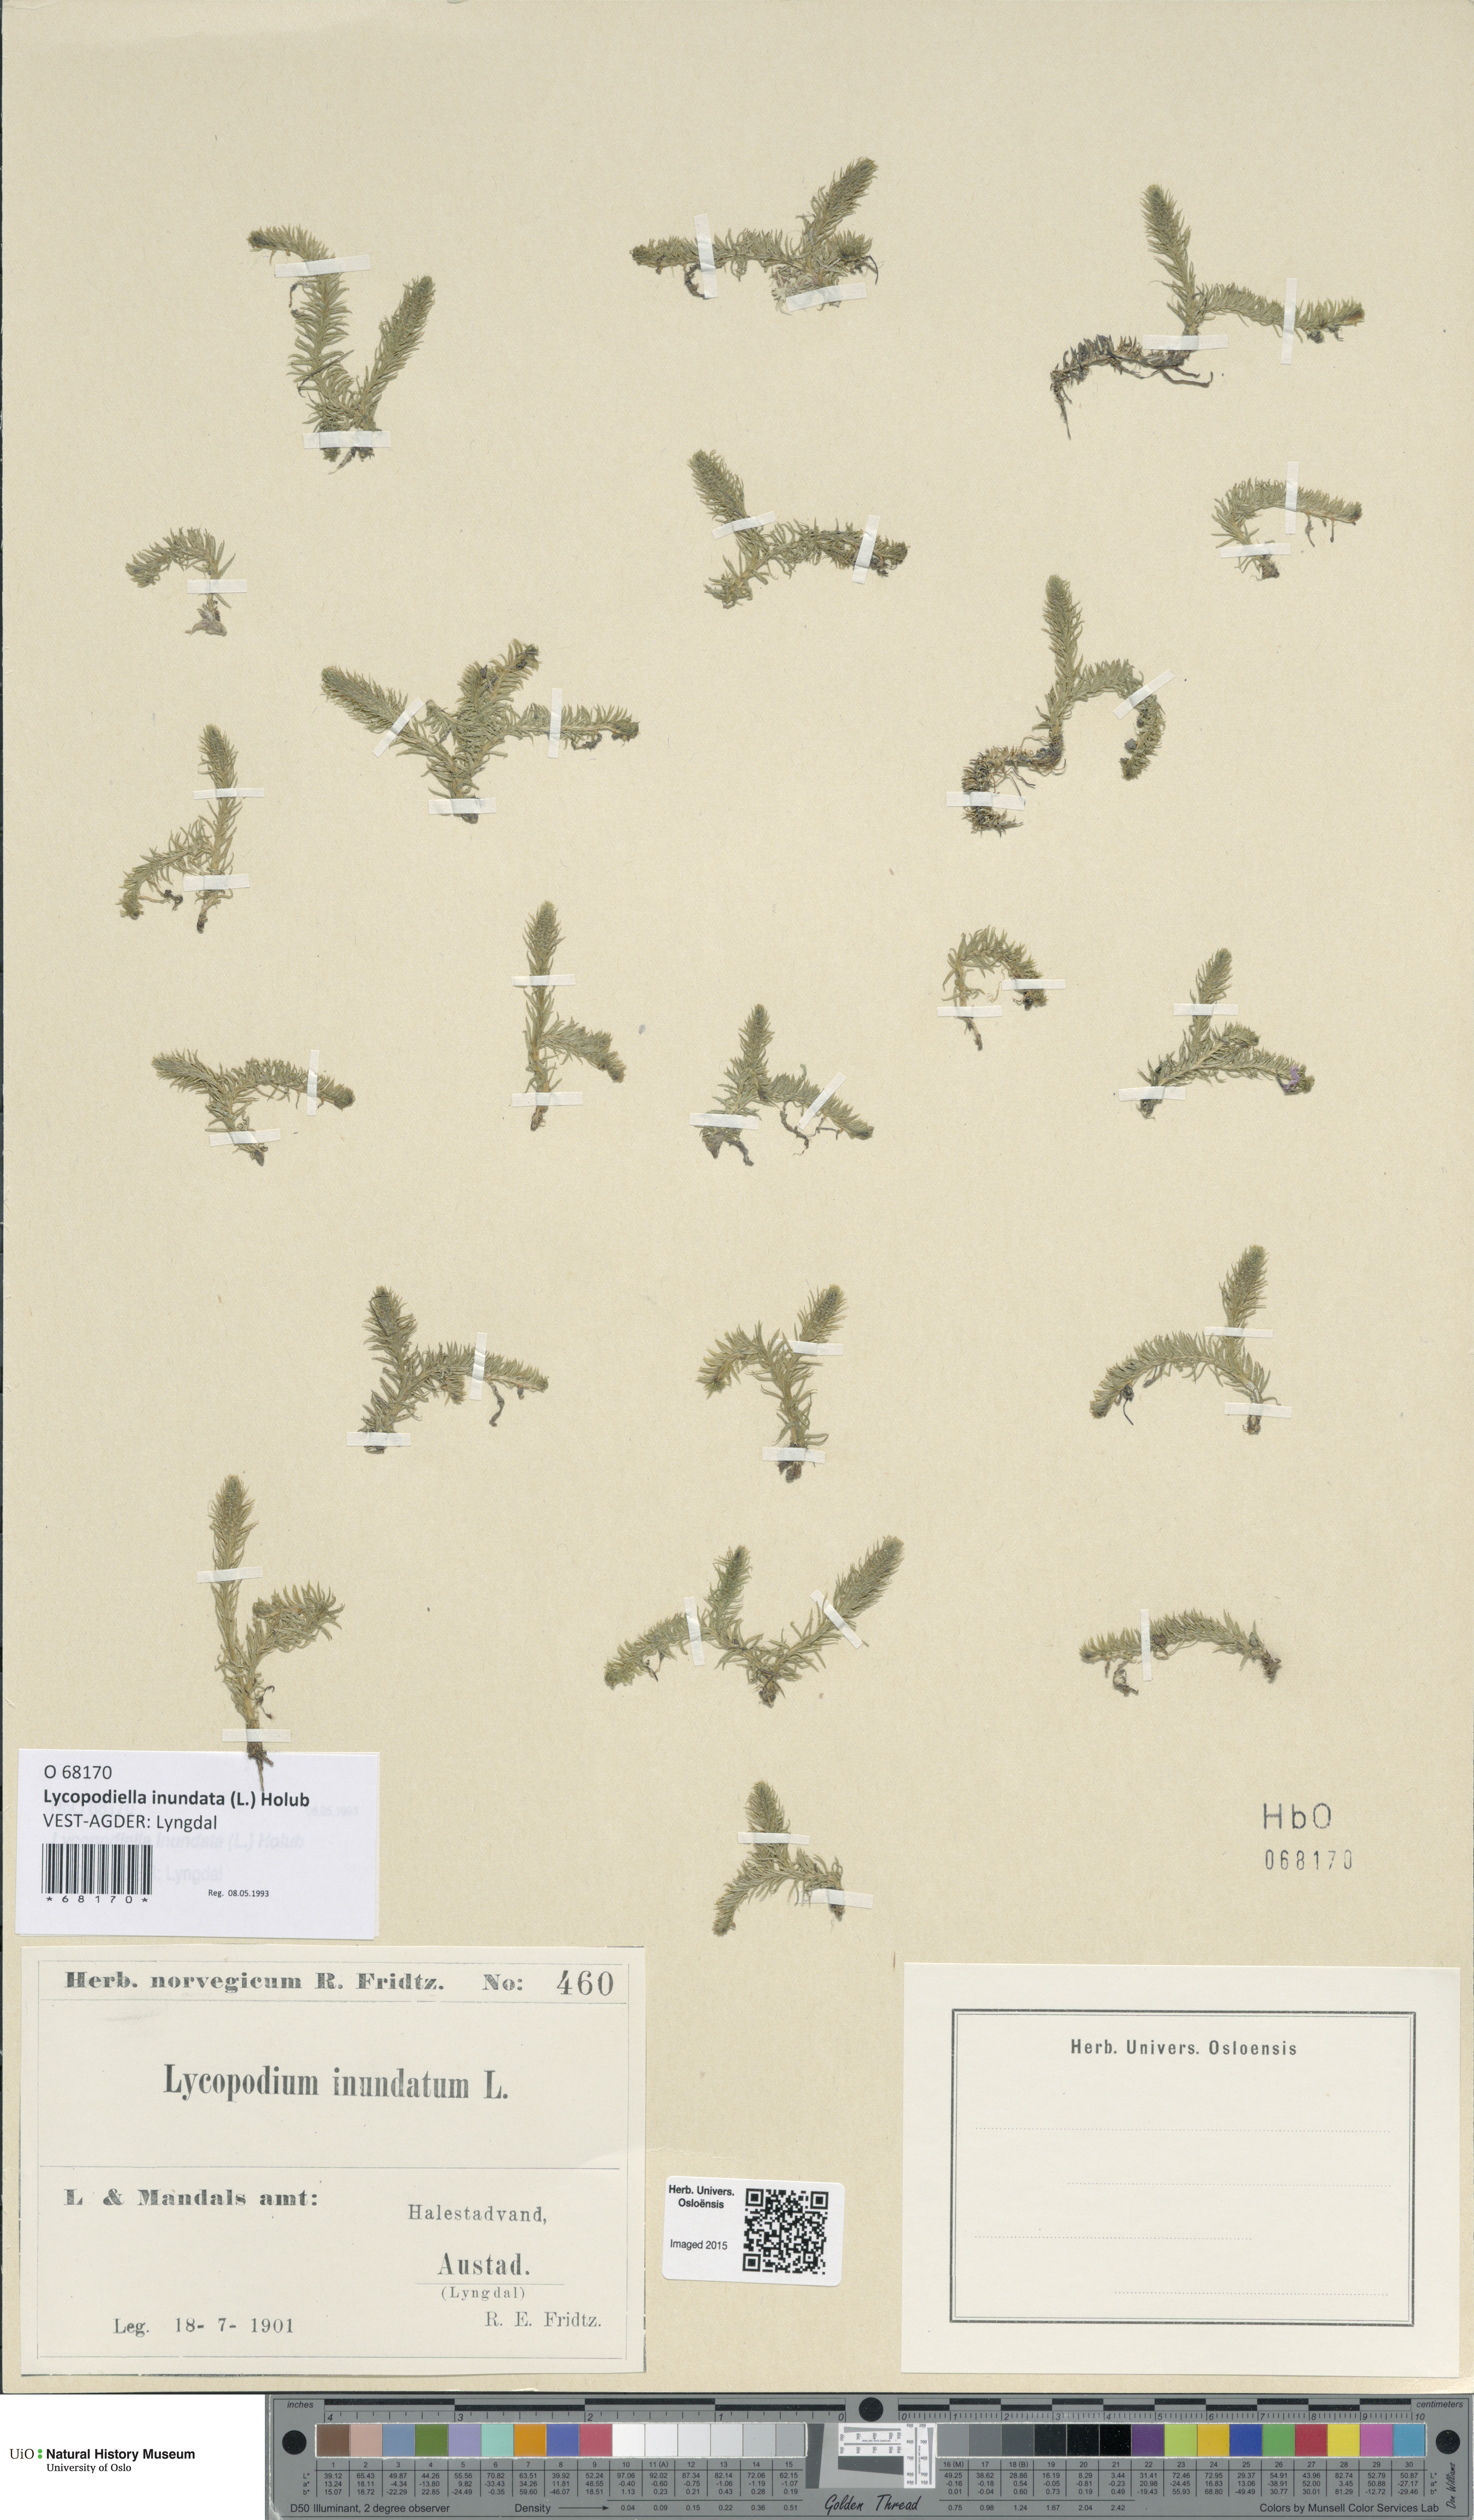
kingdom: Plantae
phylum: Tracheophyta
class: Lycopodiopsida
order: Lycopodiales
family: Lycopodiaceae
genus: Lycopodiella
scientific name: Lycopodiella inundata
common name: Marsh clubmoss
